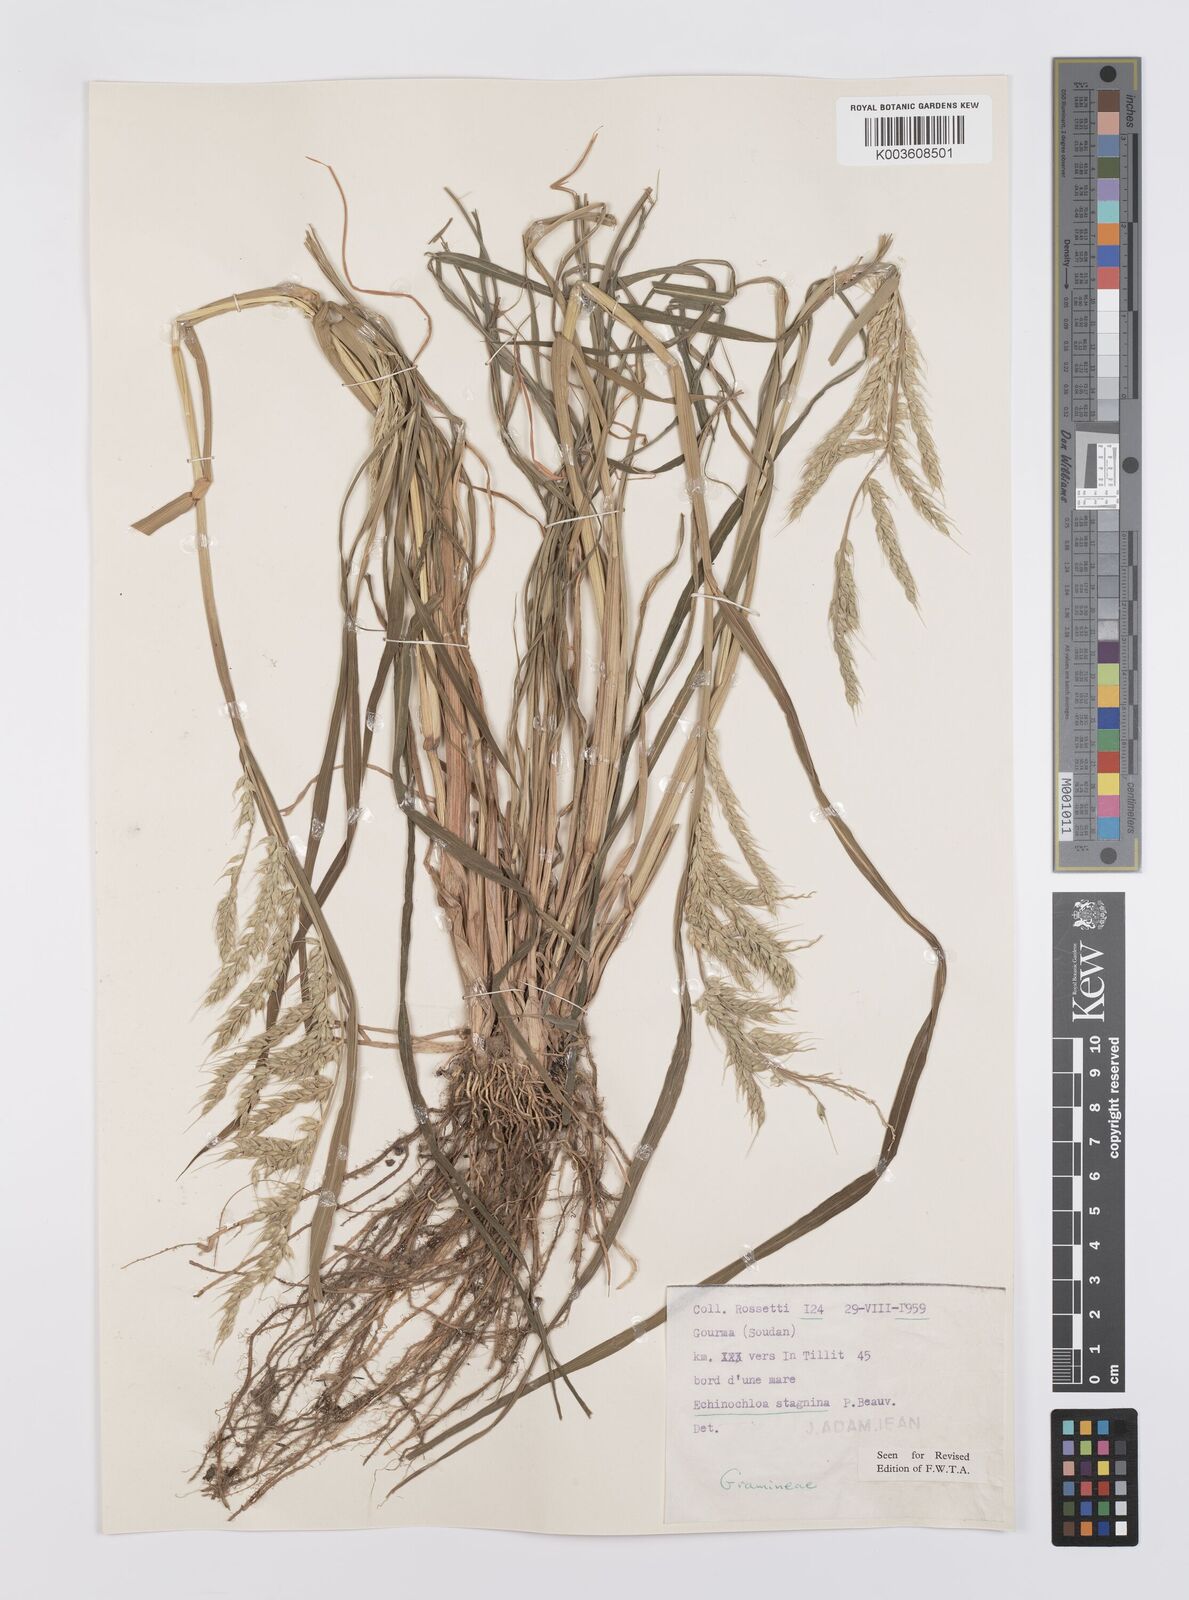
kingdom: Plantae
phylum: Tracheophyta
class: Liliopsida
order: Poales
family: Poaceae
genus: Echinochloa
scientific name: Echinochloa stagnina
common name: Burgu grass
